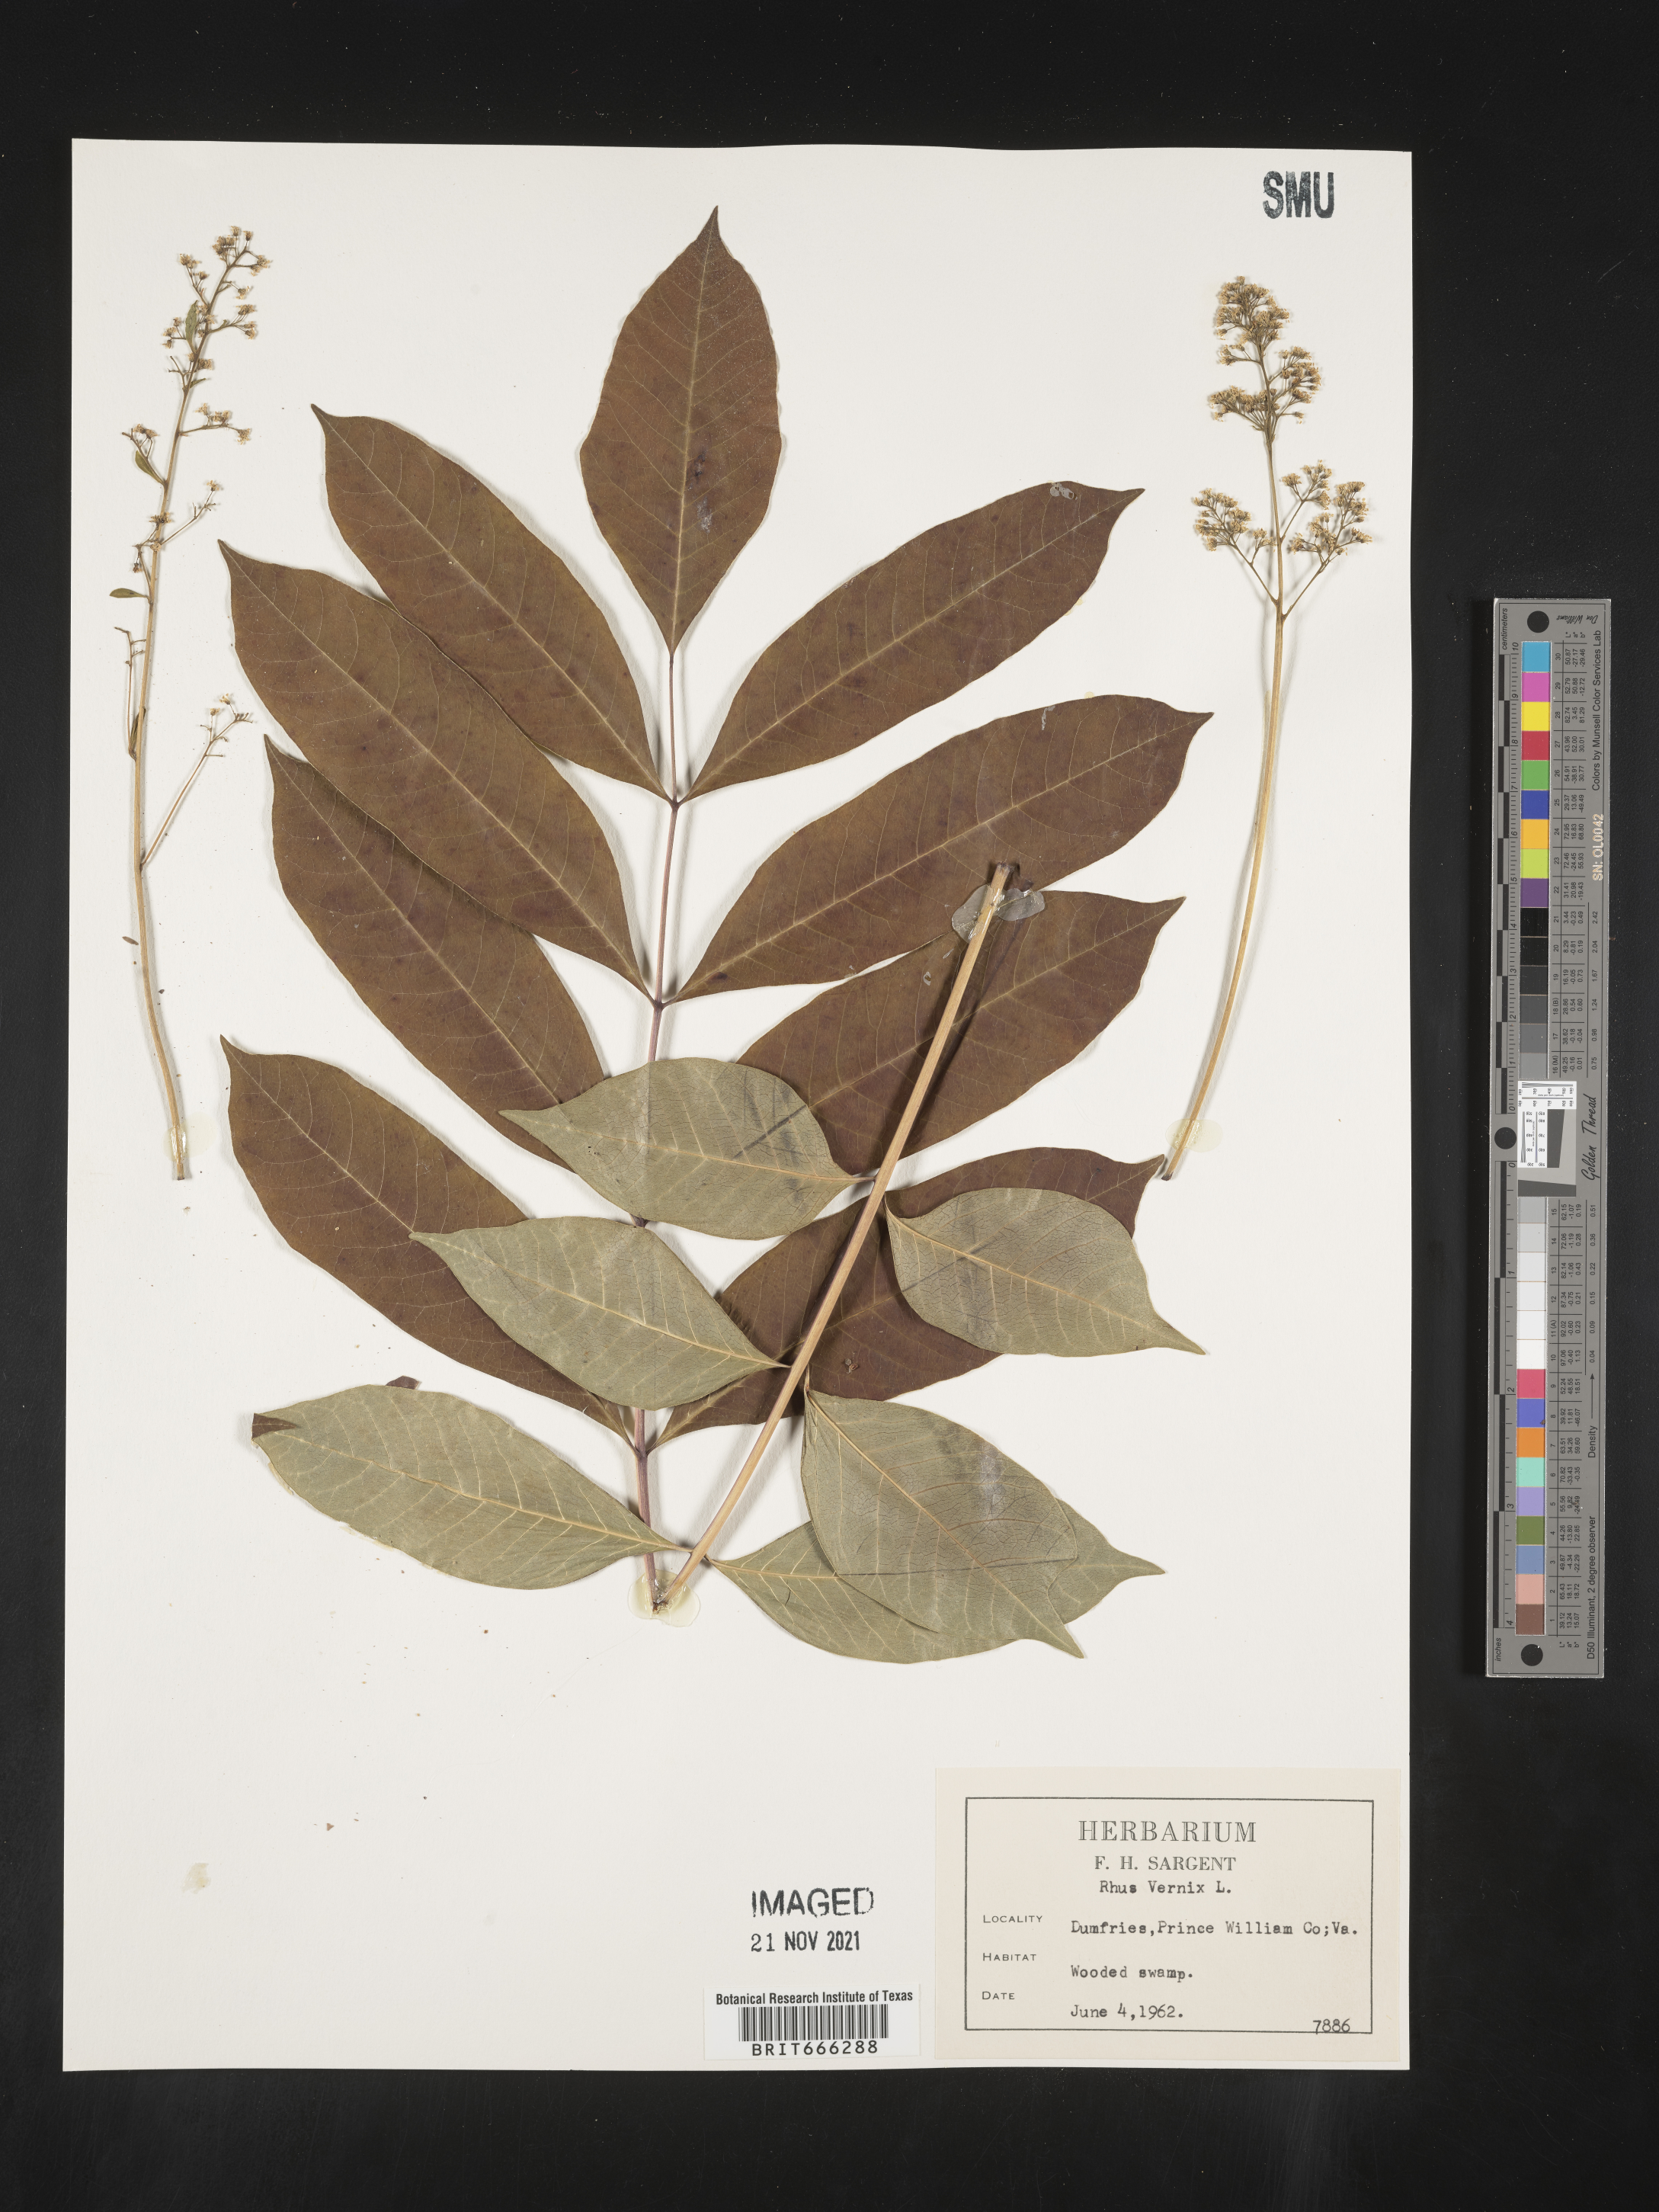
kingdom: Plantae
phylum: Tracheophyta
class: Magnoliopsida
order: Sapindales
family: Anacardiaceae
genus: Toxicodendron
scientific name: Toxicodendron vernix
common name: Poison sumac
